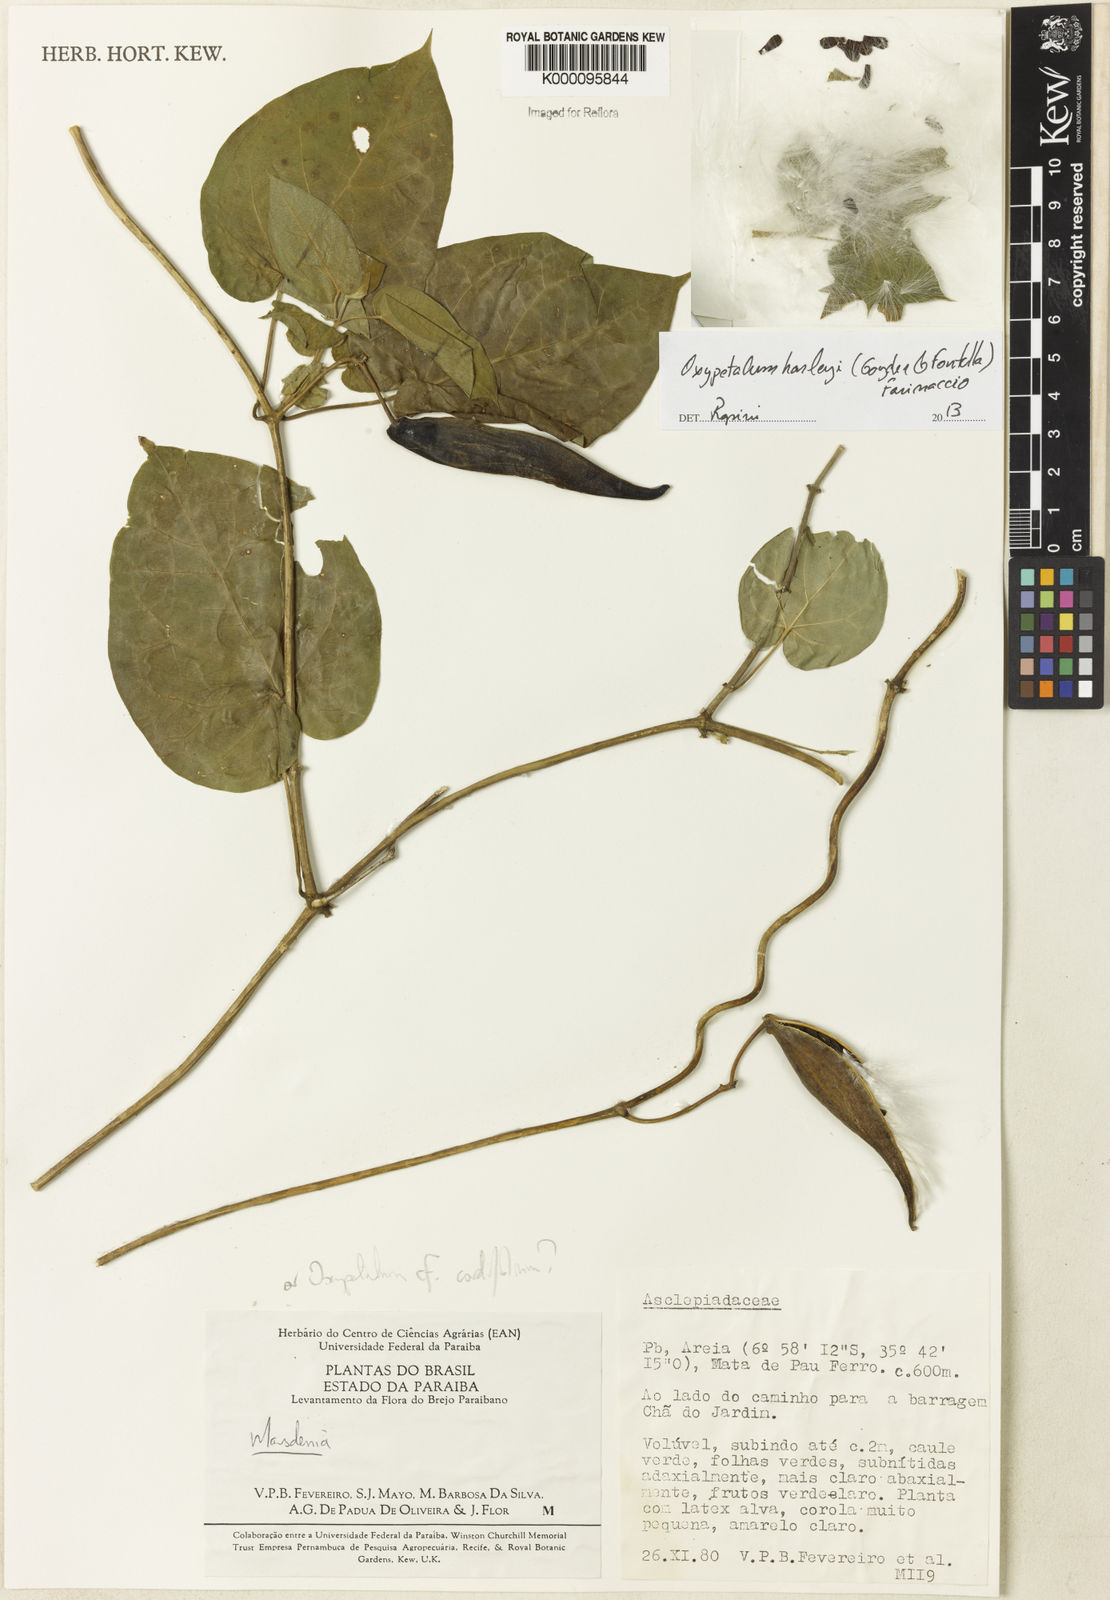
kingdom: Plantae
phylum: Tracheophyta
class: Magnoliopsida
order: Gentianales
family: Apocynaceae
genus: Oxypetalum
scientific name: Oxypetalum harleyi
